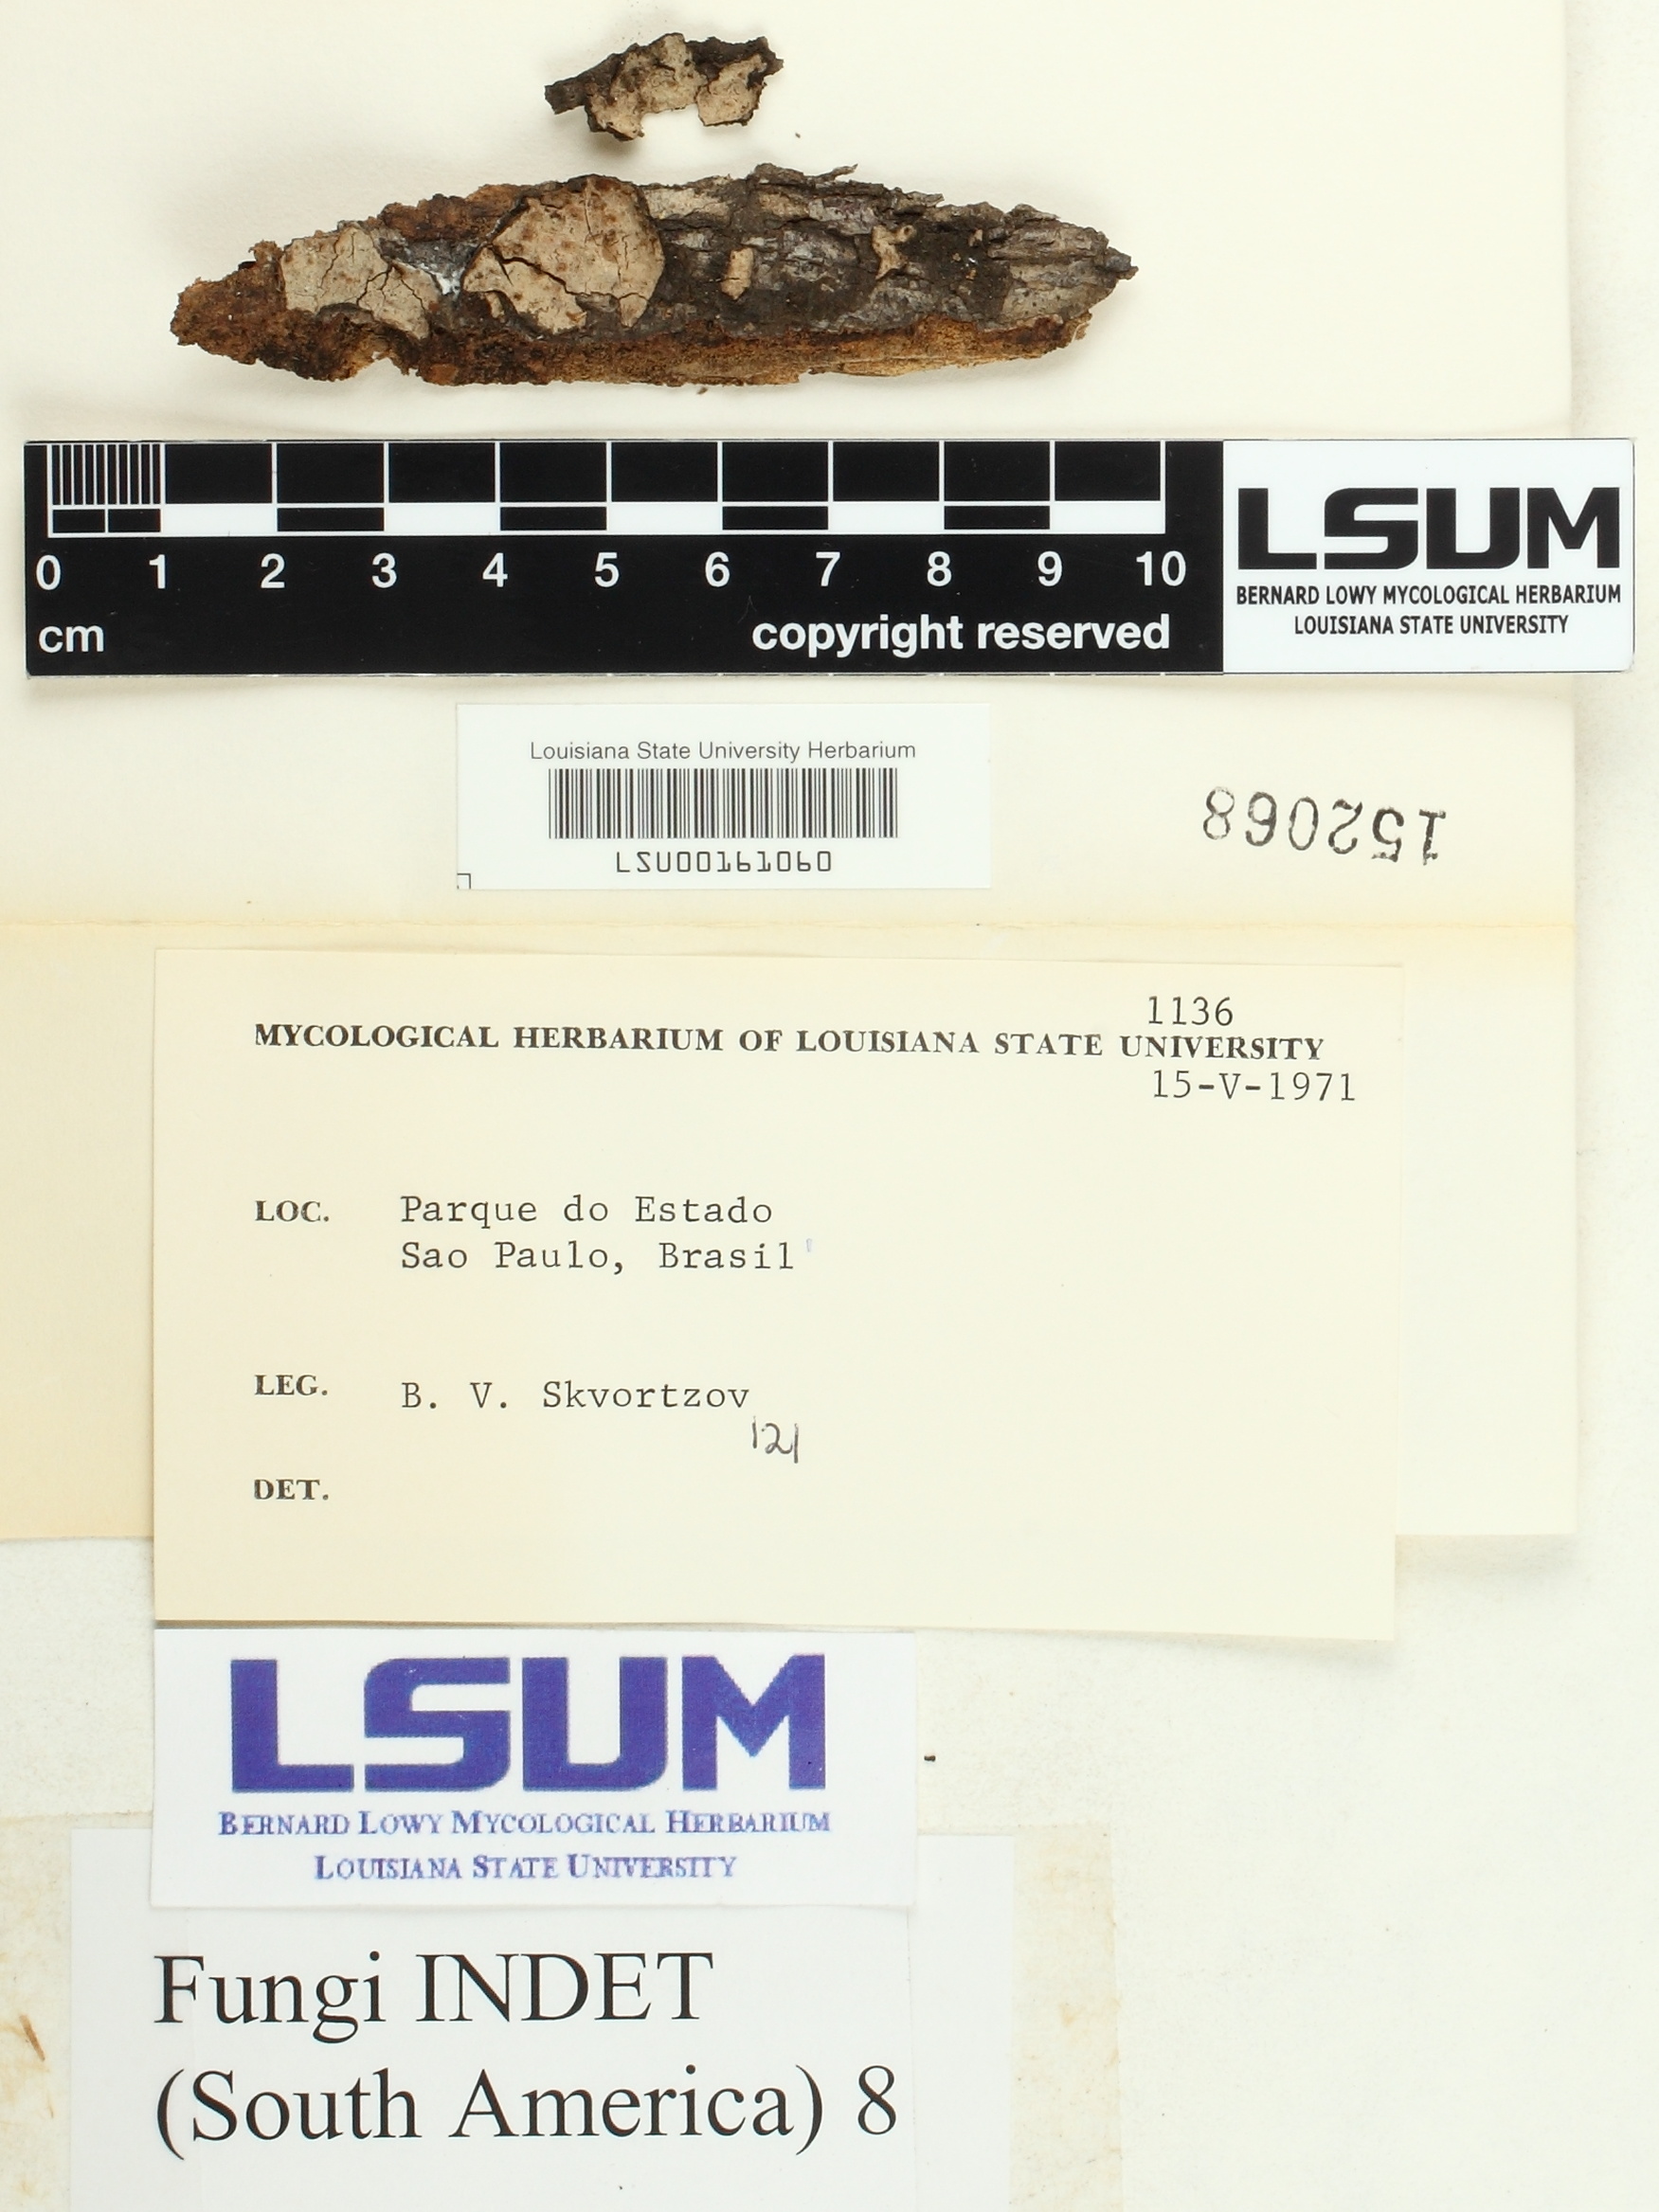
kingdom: Fungi
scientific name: Fungi
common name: Fungi
